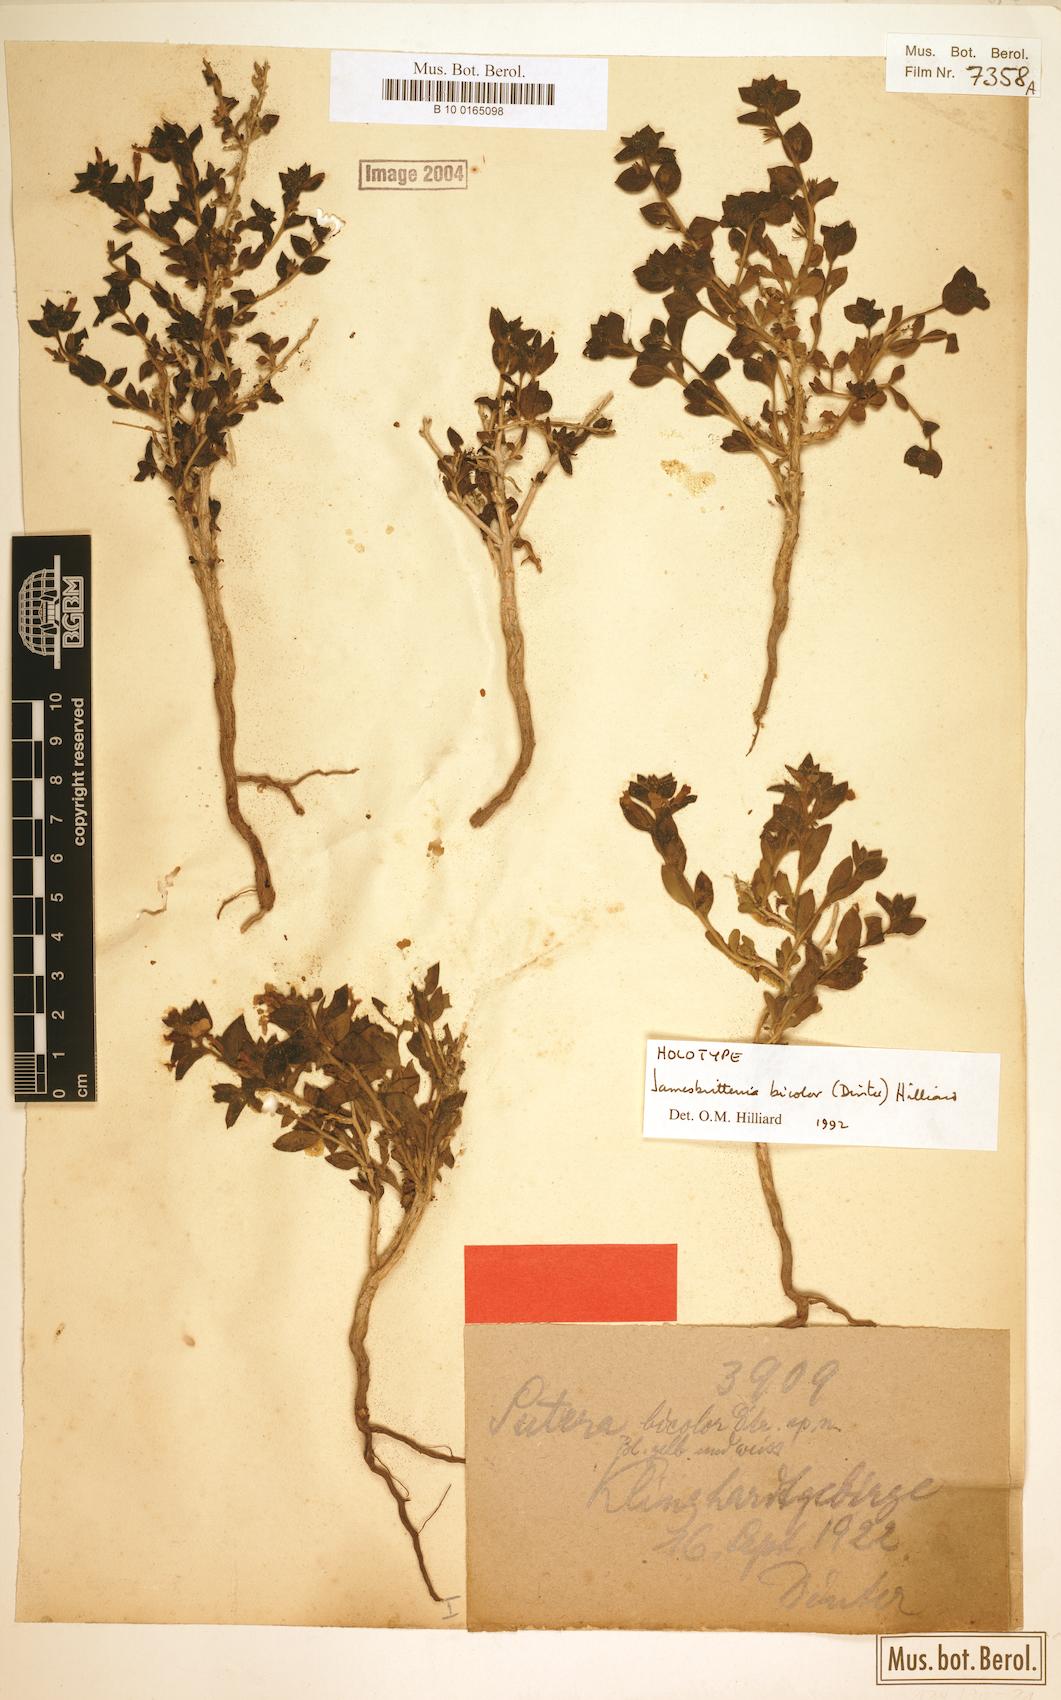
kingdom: Plantae
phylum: Tracheophyta
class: Magnoliopsida
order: Lamiales
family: Scrophulariaceae
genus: Jamesbrittenia
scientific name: Jamesbrittenia bicolor
